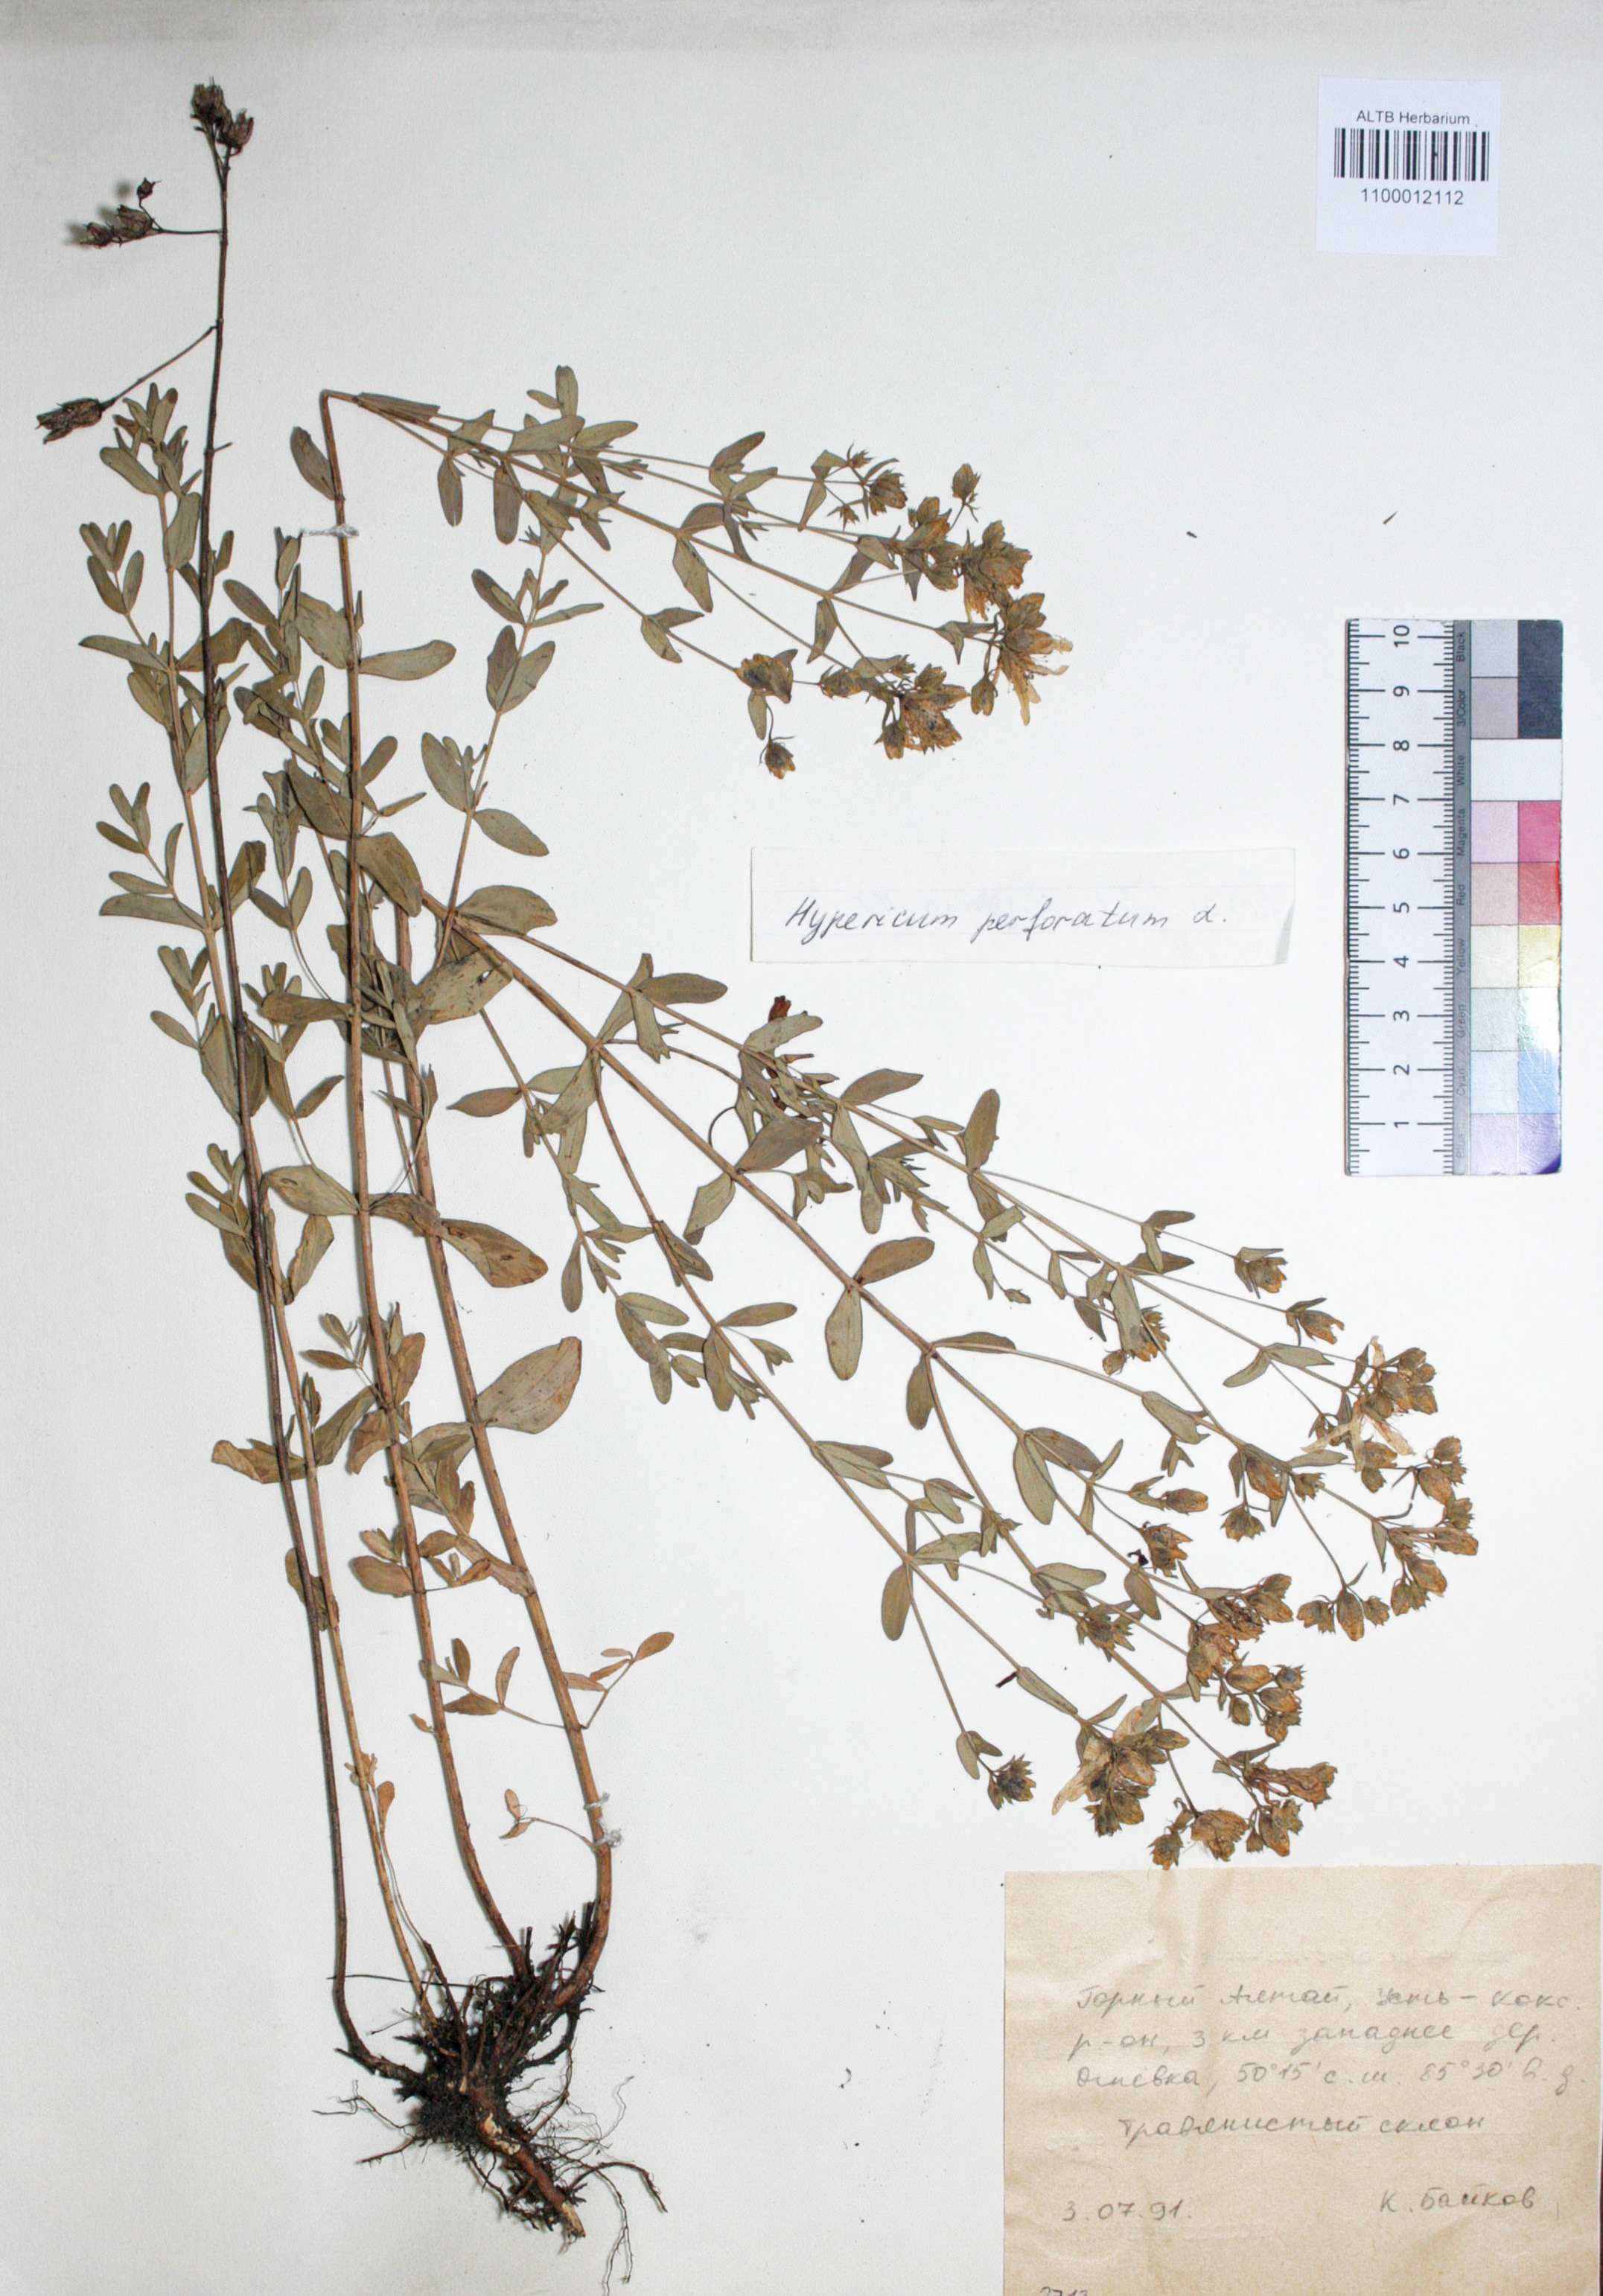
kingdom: Plantae
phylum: Tracheophyta
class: Magnoliopsida
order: Malpighiales
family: Hypericaceae
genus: Hypericum
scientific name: Hypericum perforatum
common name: Common st. johnswort
